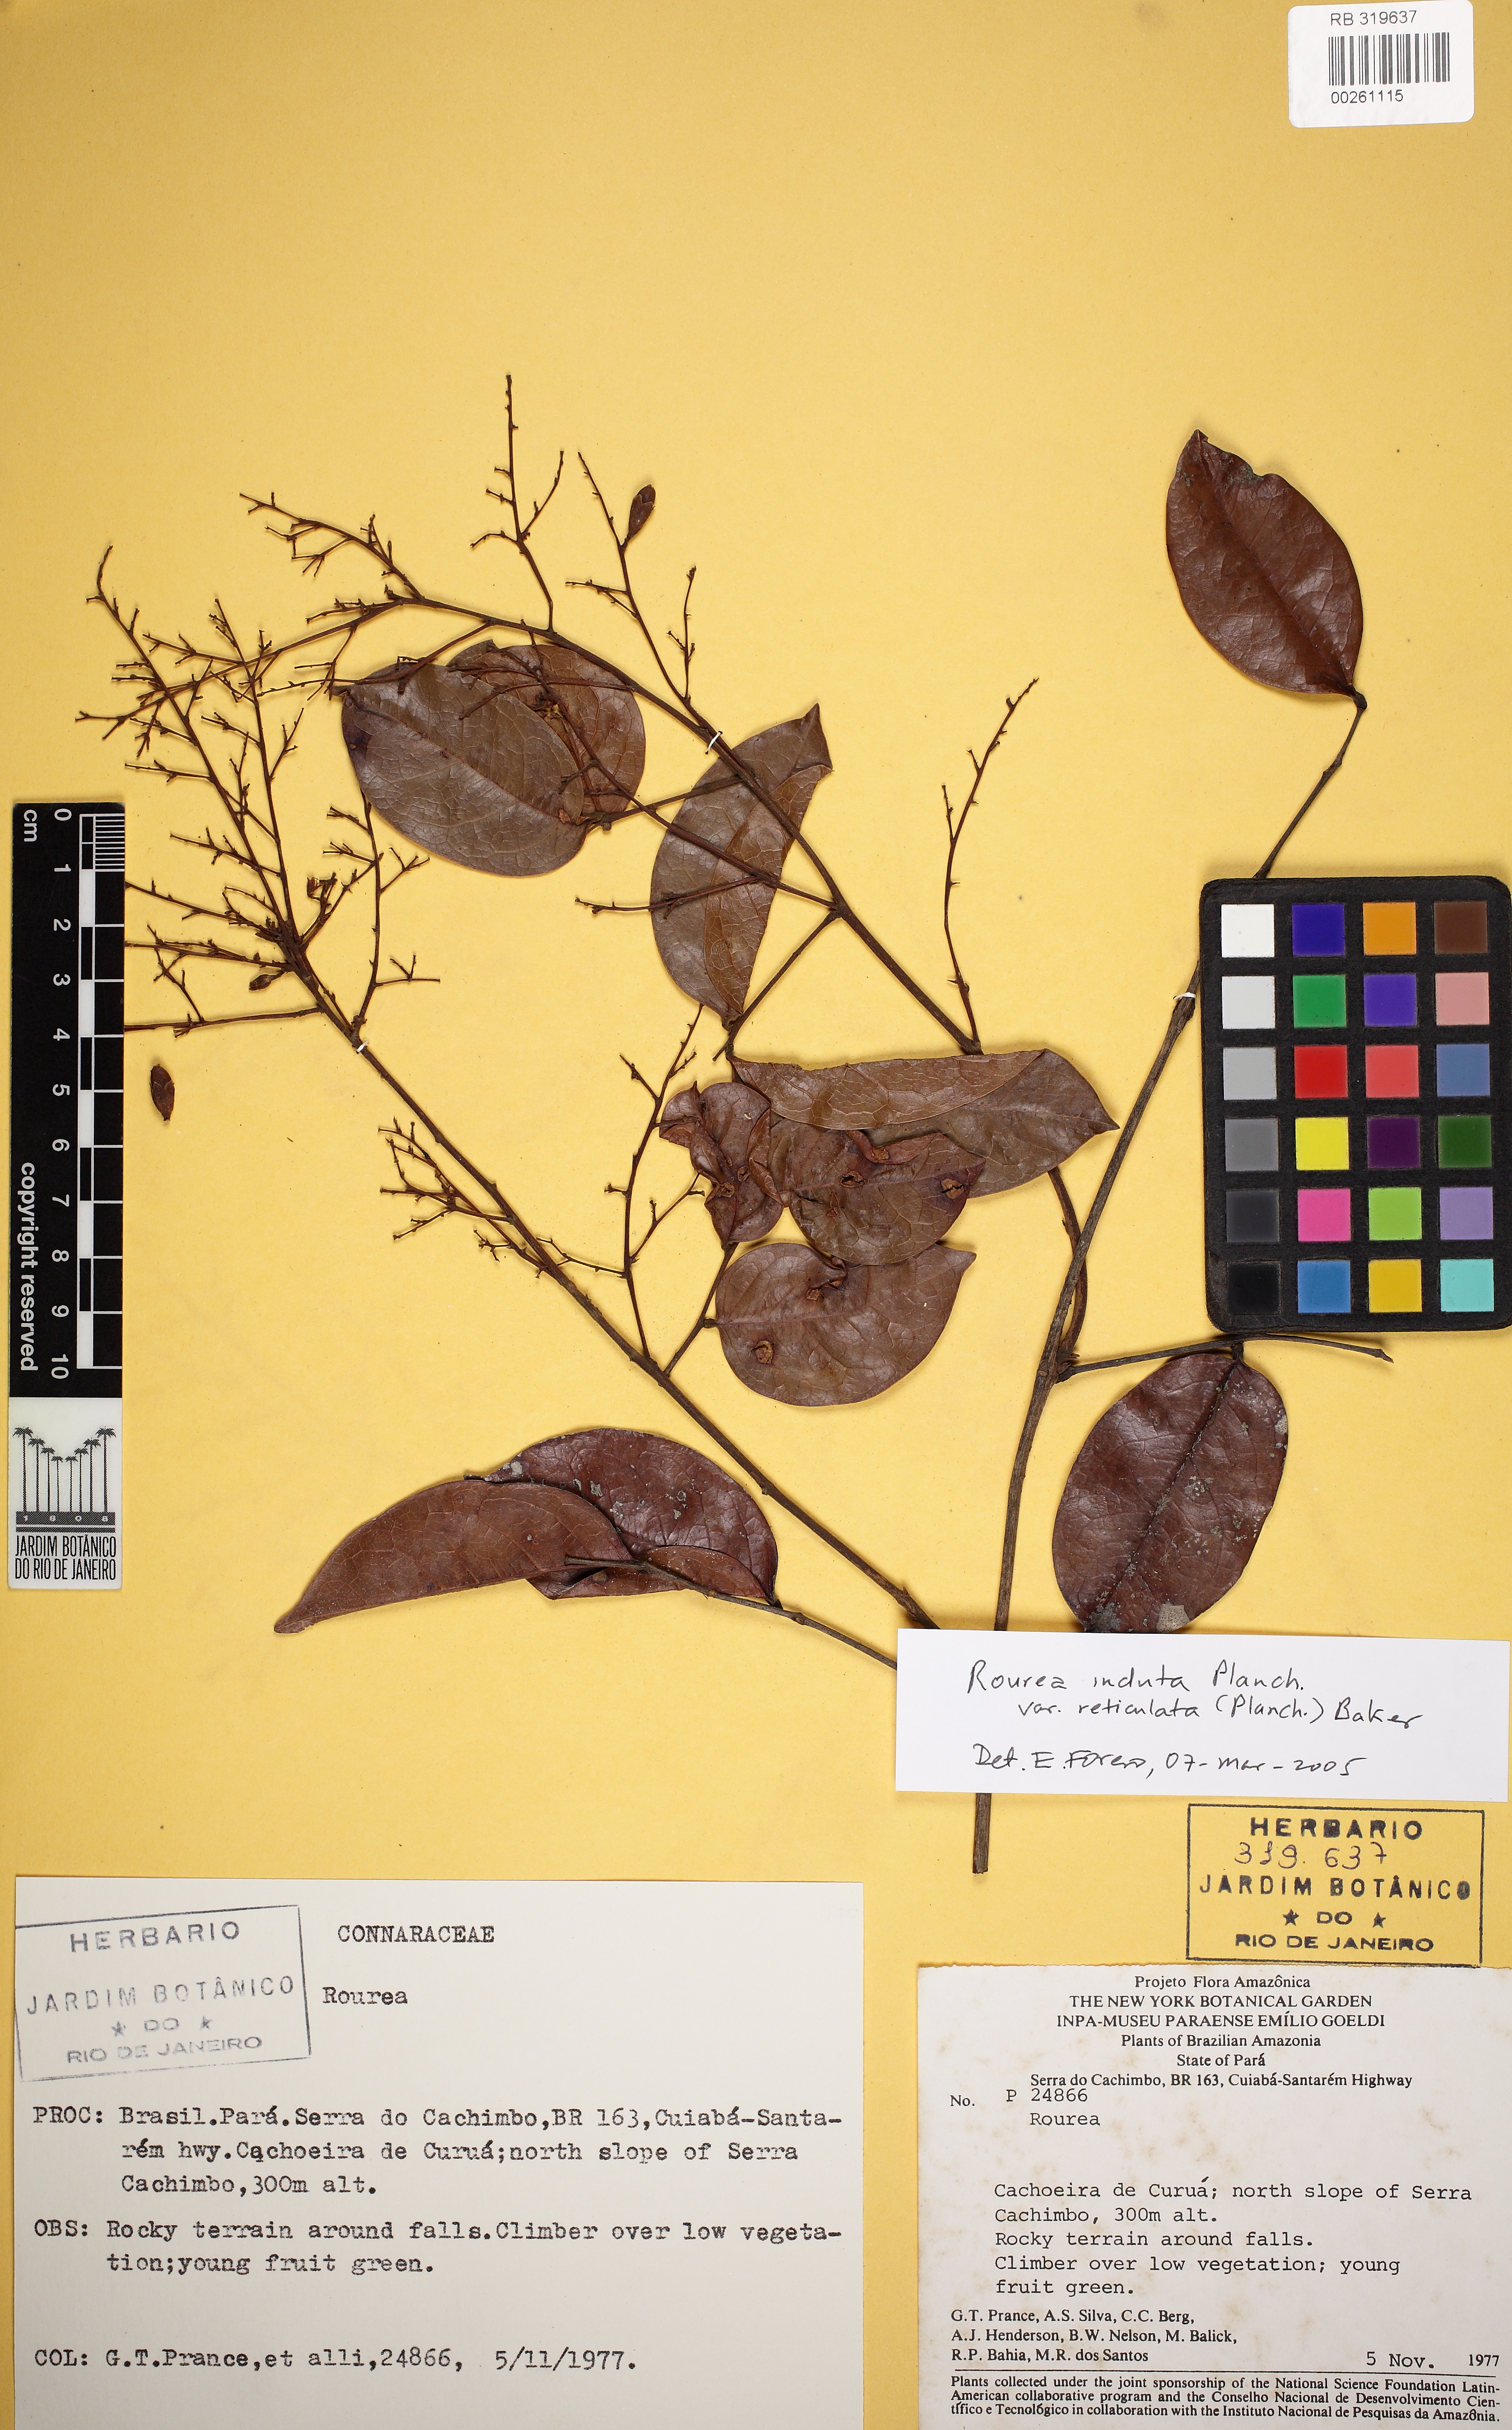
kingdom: Plantae
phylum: Tracheophyta
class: Magnoliopsida
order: Oxalidales
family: Connaraceae
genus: Rourea
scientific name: Rourea induta
